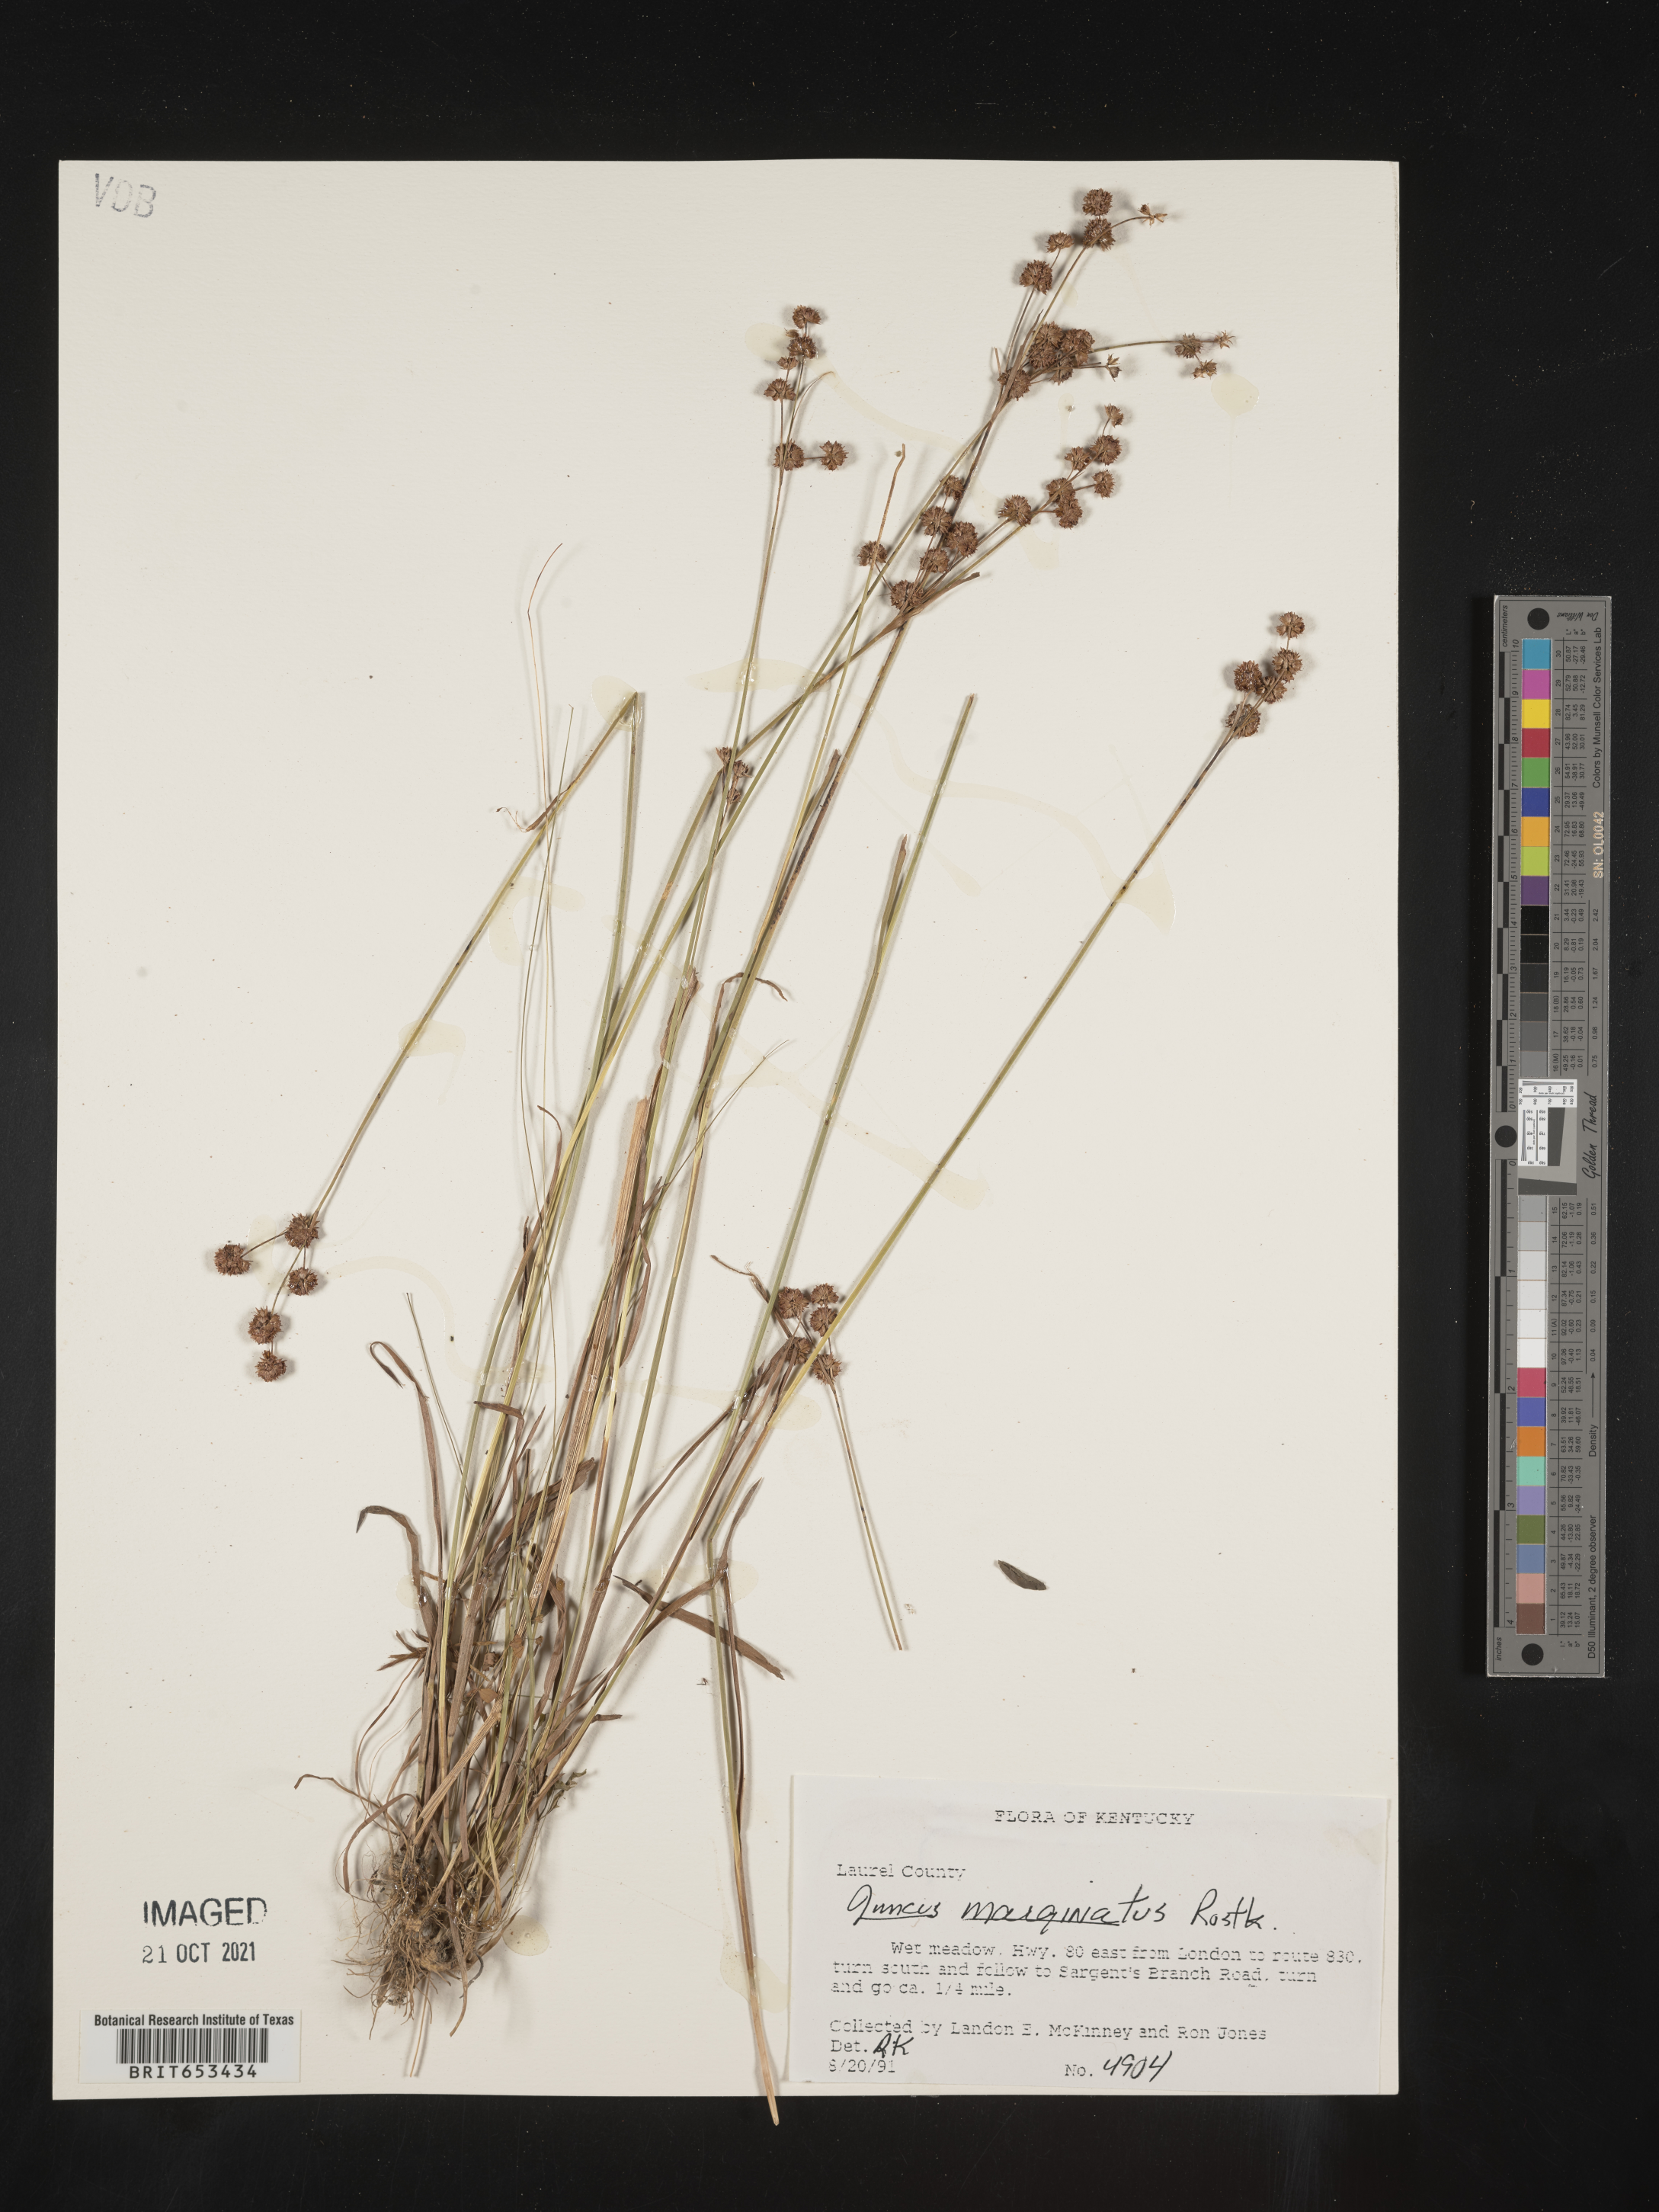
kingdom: Plantae
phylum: Tracheophyta
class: Liliopsida
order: Poales
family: Juncaceae
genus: Juncus
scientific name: Juncus marginatus
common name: Grass-leaf rush
